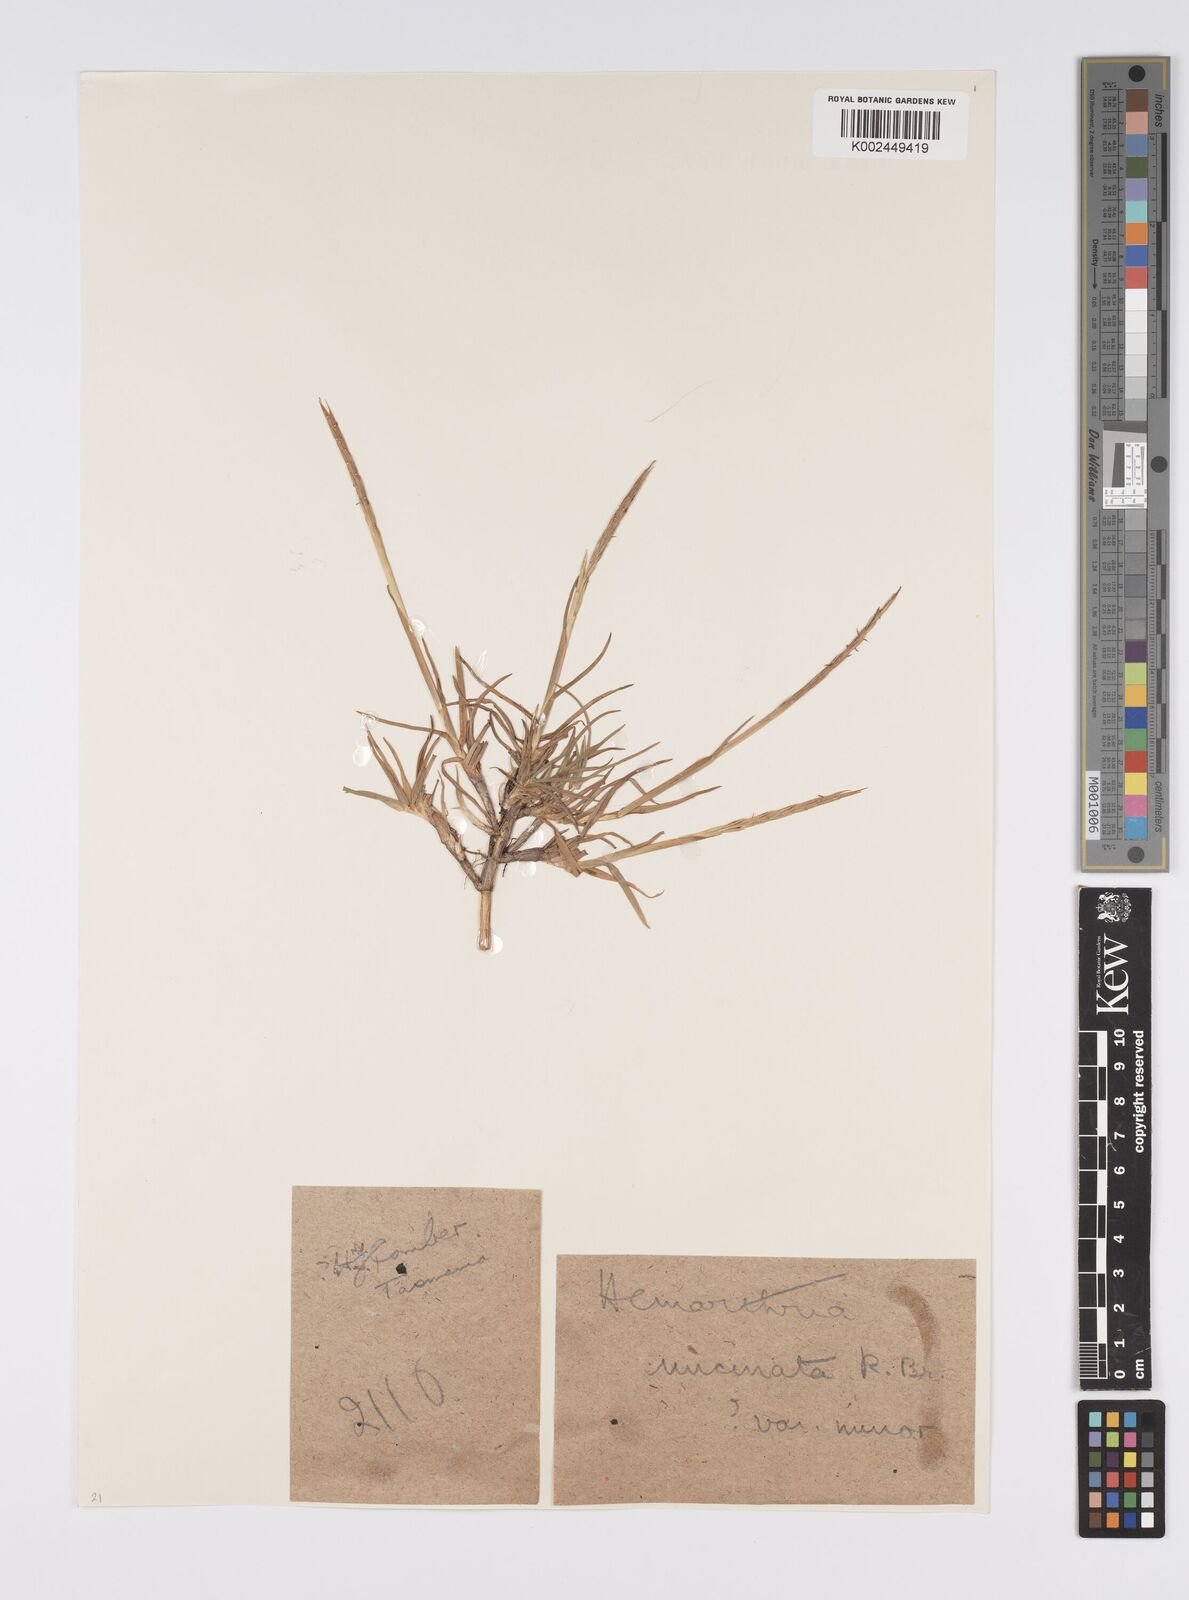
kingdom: Plantae
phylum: Tracheophyta
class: Liliopsida
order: Poales
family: Poaceae
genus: Hemarthria
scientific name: Hemarthria uncinata
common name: Matgrass
